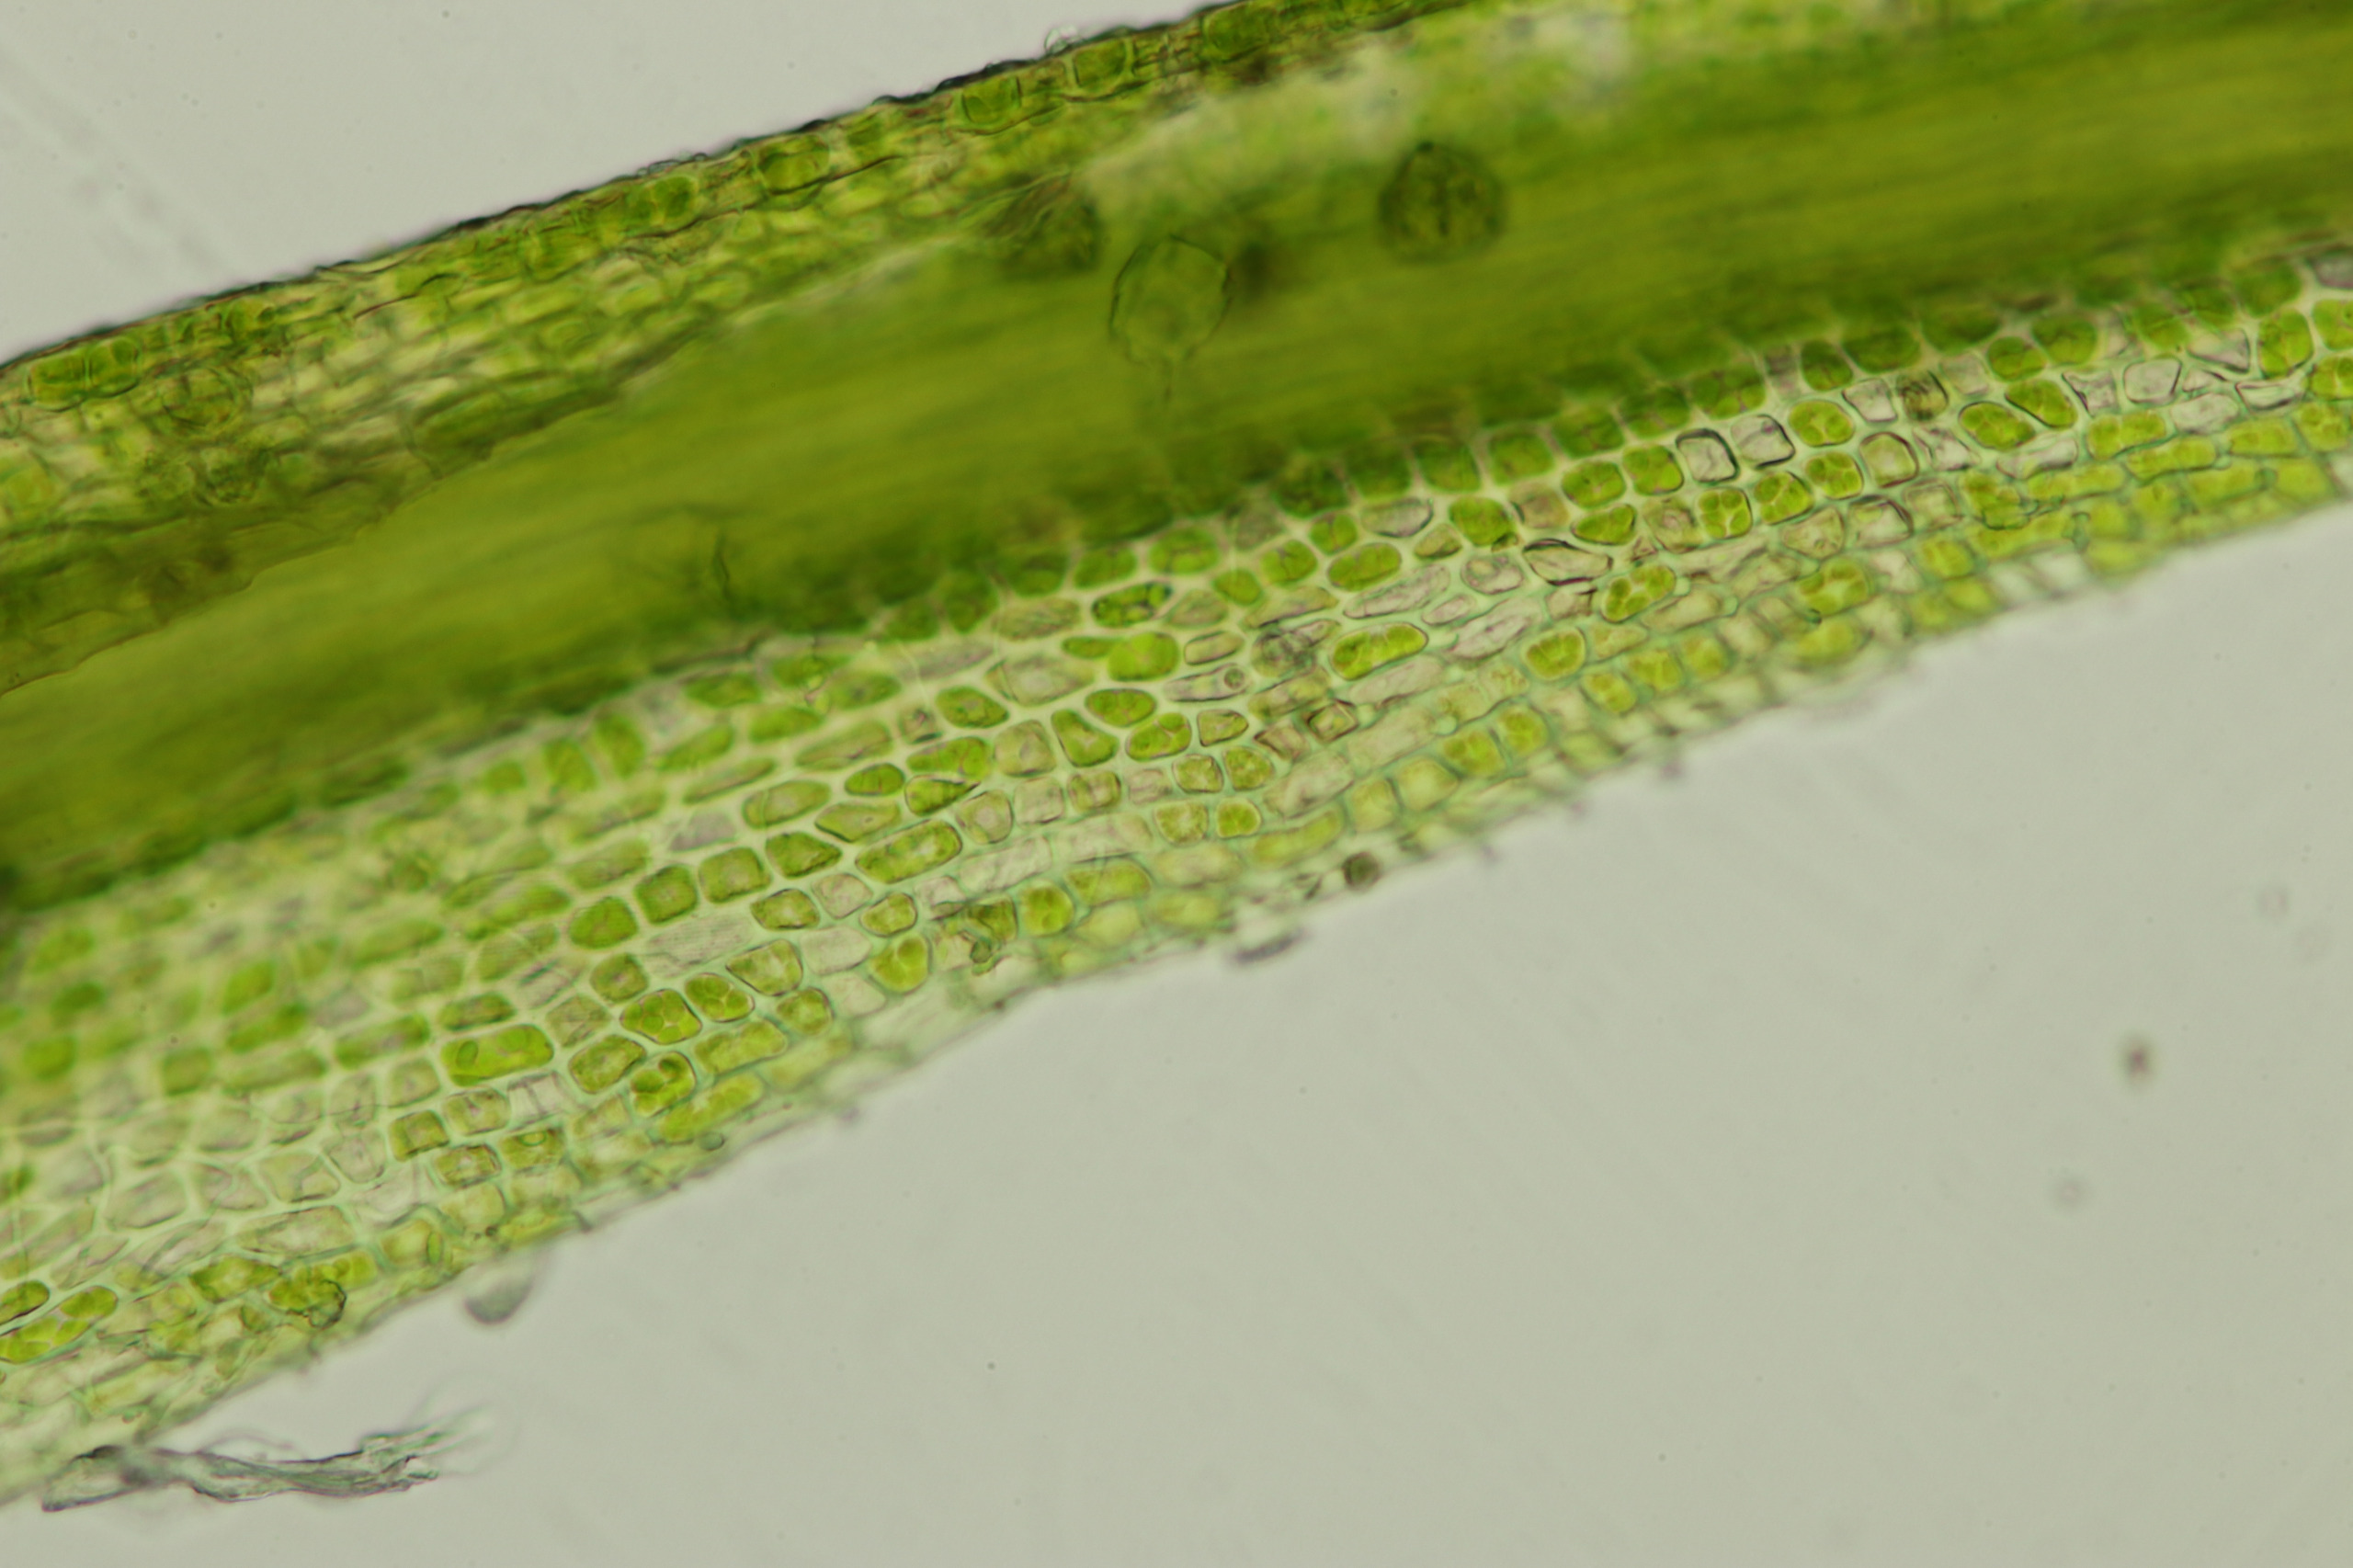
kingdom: Plantae
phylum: Bryophyta
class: Bryopsida
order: Dicranales
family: Dicranaceae
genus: Dicranum
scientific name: Dicranum fuscescens
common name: Mørk kløvtand
